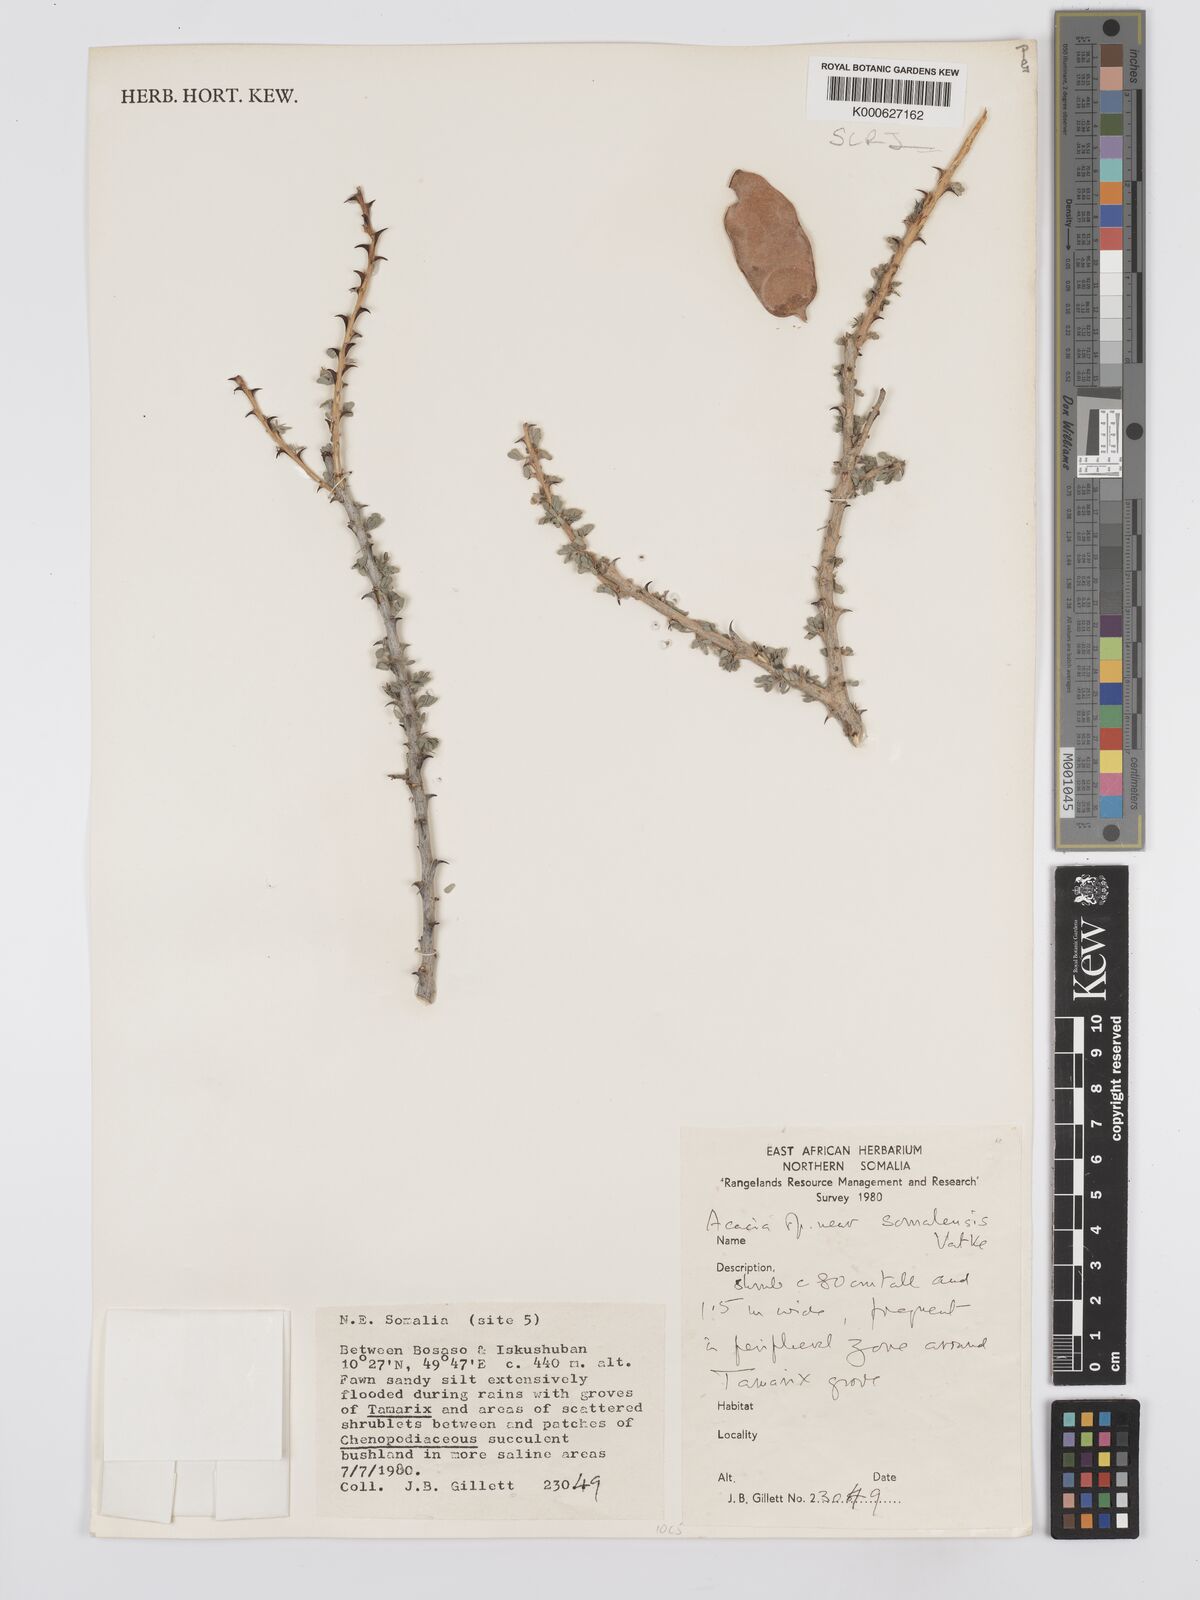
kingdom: Plantae
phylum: Tracheophyta
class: Magnoliopsida
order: Fabales
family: Fabaceae
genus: Senegalia
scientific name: Senegalia somalensis
